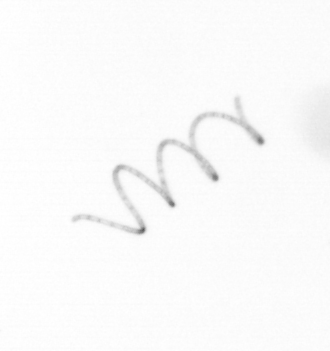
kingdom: Chromista
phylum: Ochrophyta
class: Bacillariophyceae
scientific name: Bacillariophyceae
